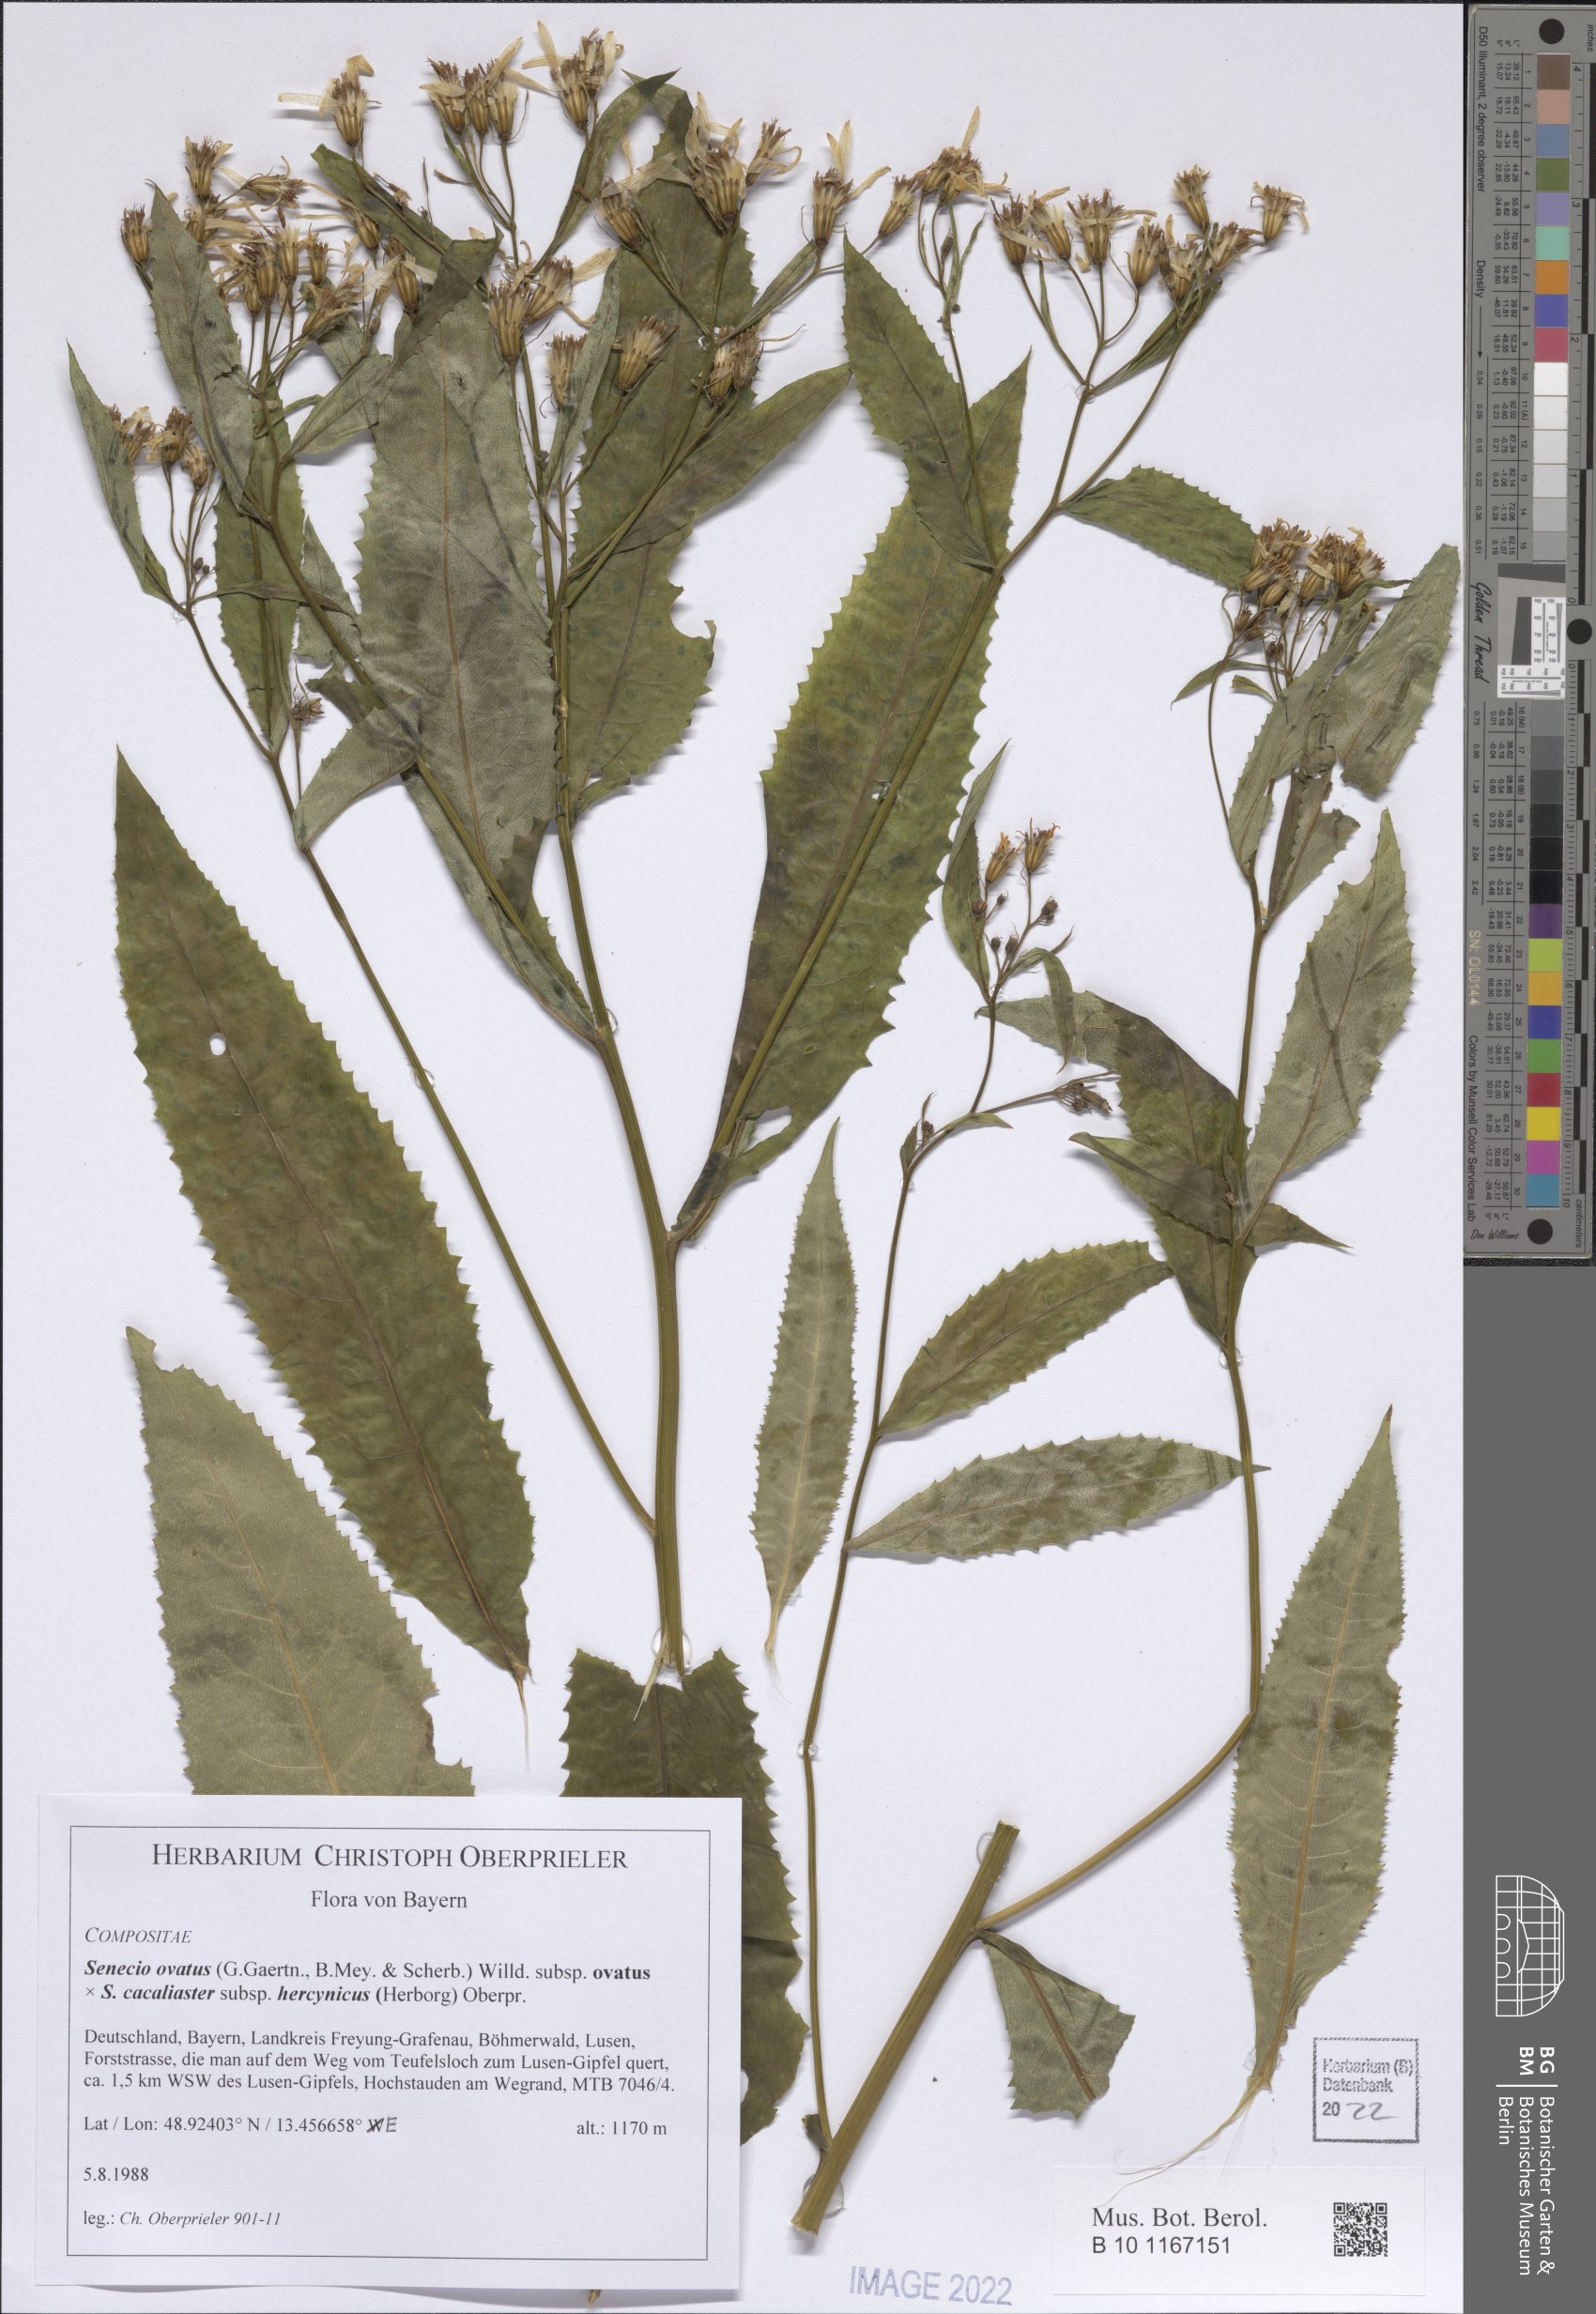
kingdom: Plantae
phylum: Tracheophyta
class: Magnoliopsida
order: Asterales
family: Asteraceae
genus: Senecio
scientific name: Senecio ovatus
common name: Wood ragwort
